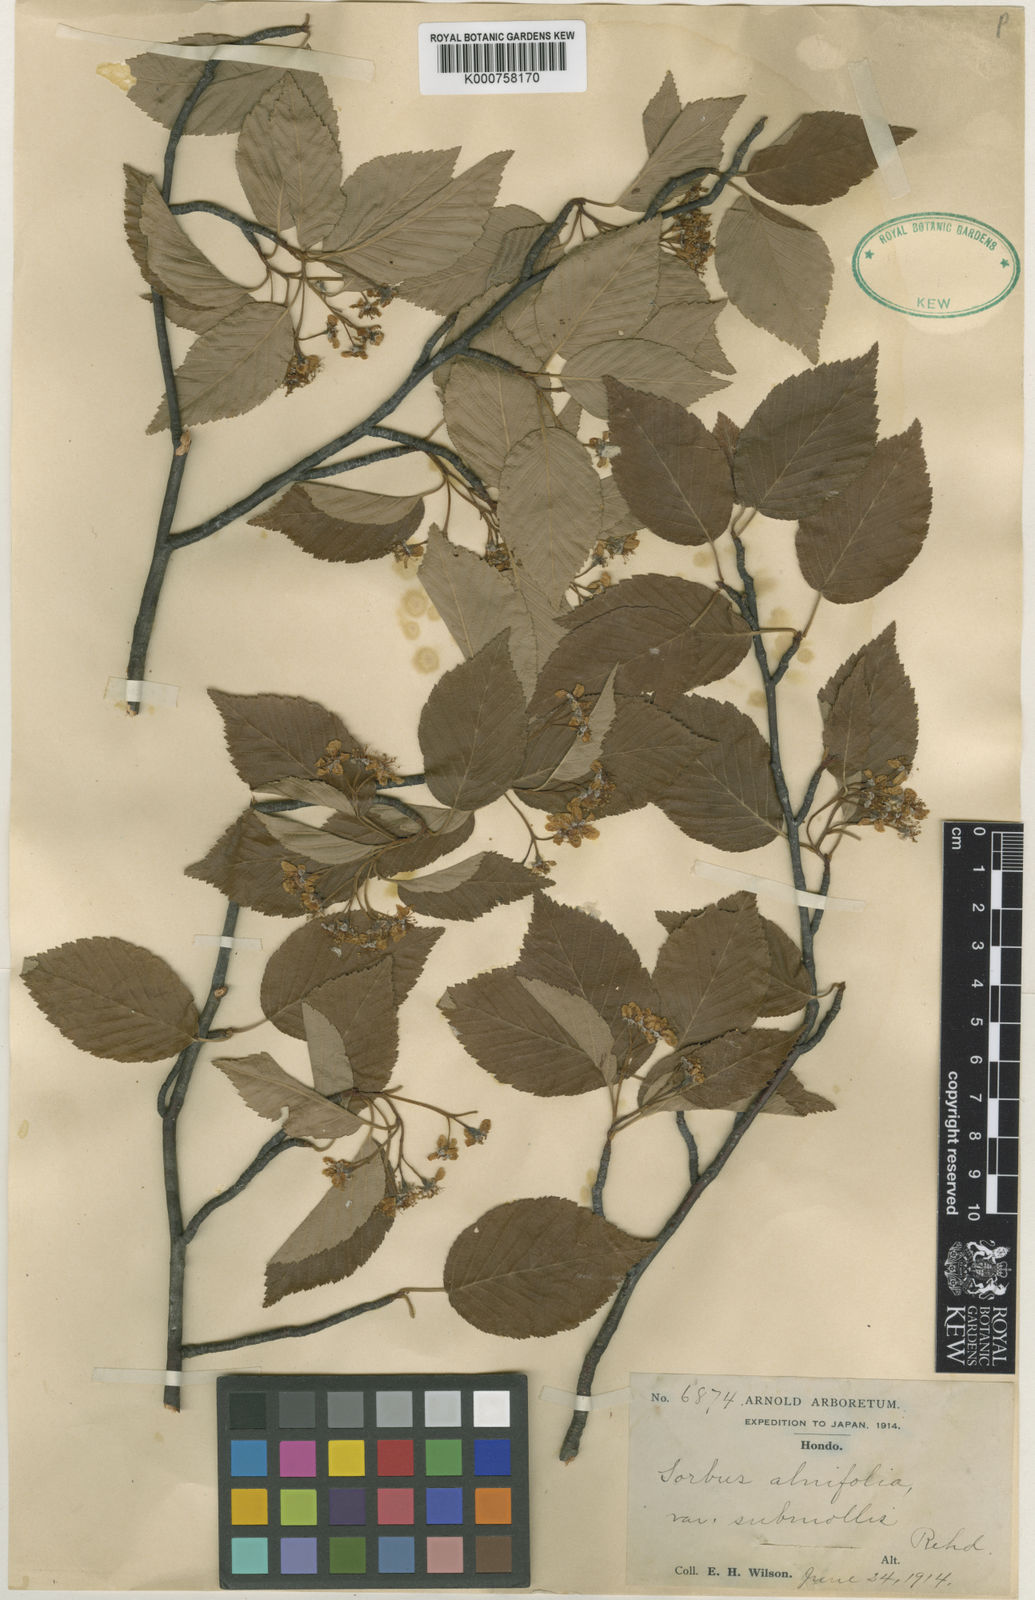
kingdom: Plantae
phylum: Tracheophyta
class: Magnoliopsida
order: Rosales
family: Rosaceae
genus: Sorbus
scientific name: Sorbus alnifolia
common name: Mountain-ash
